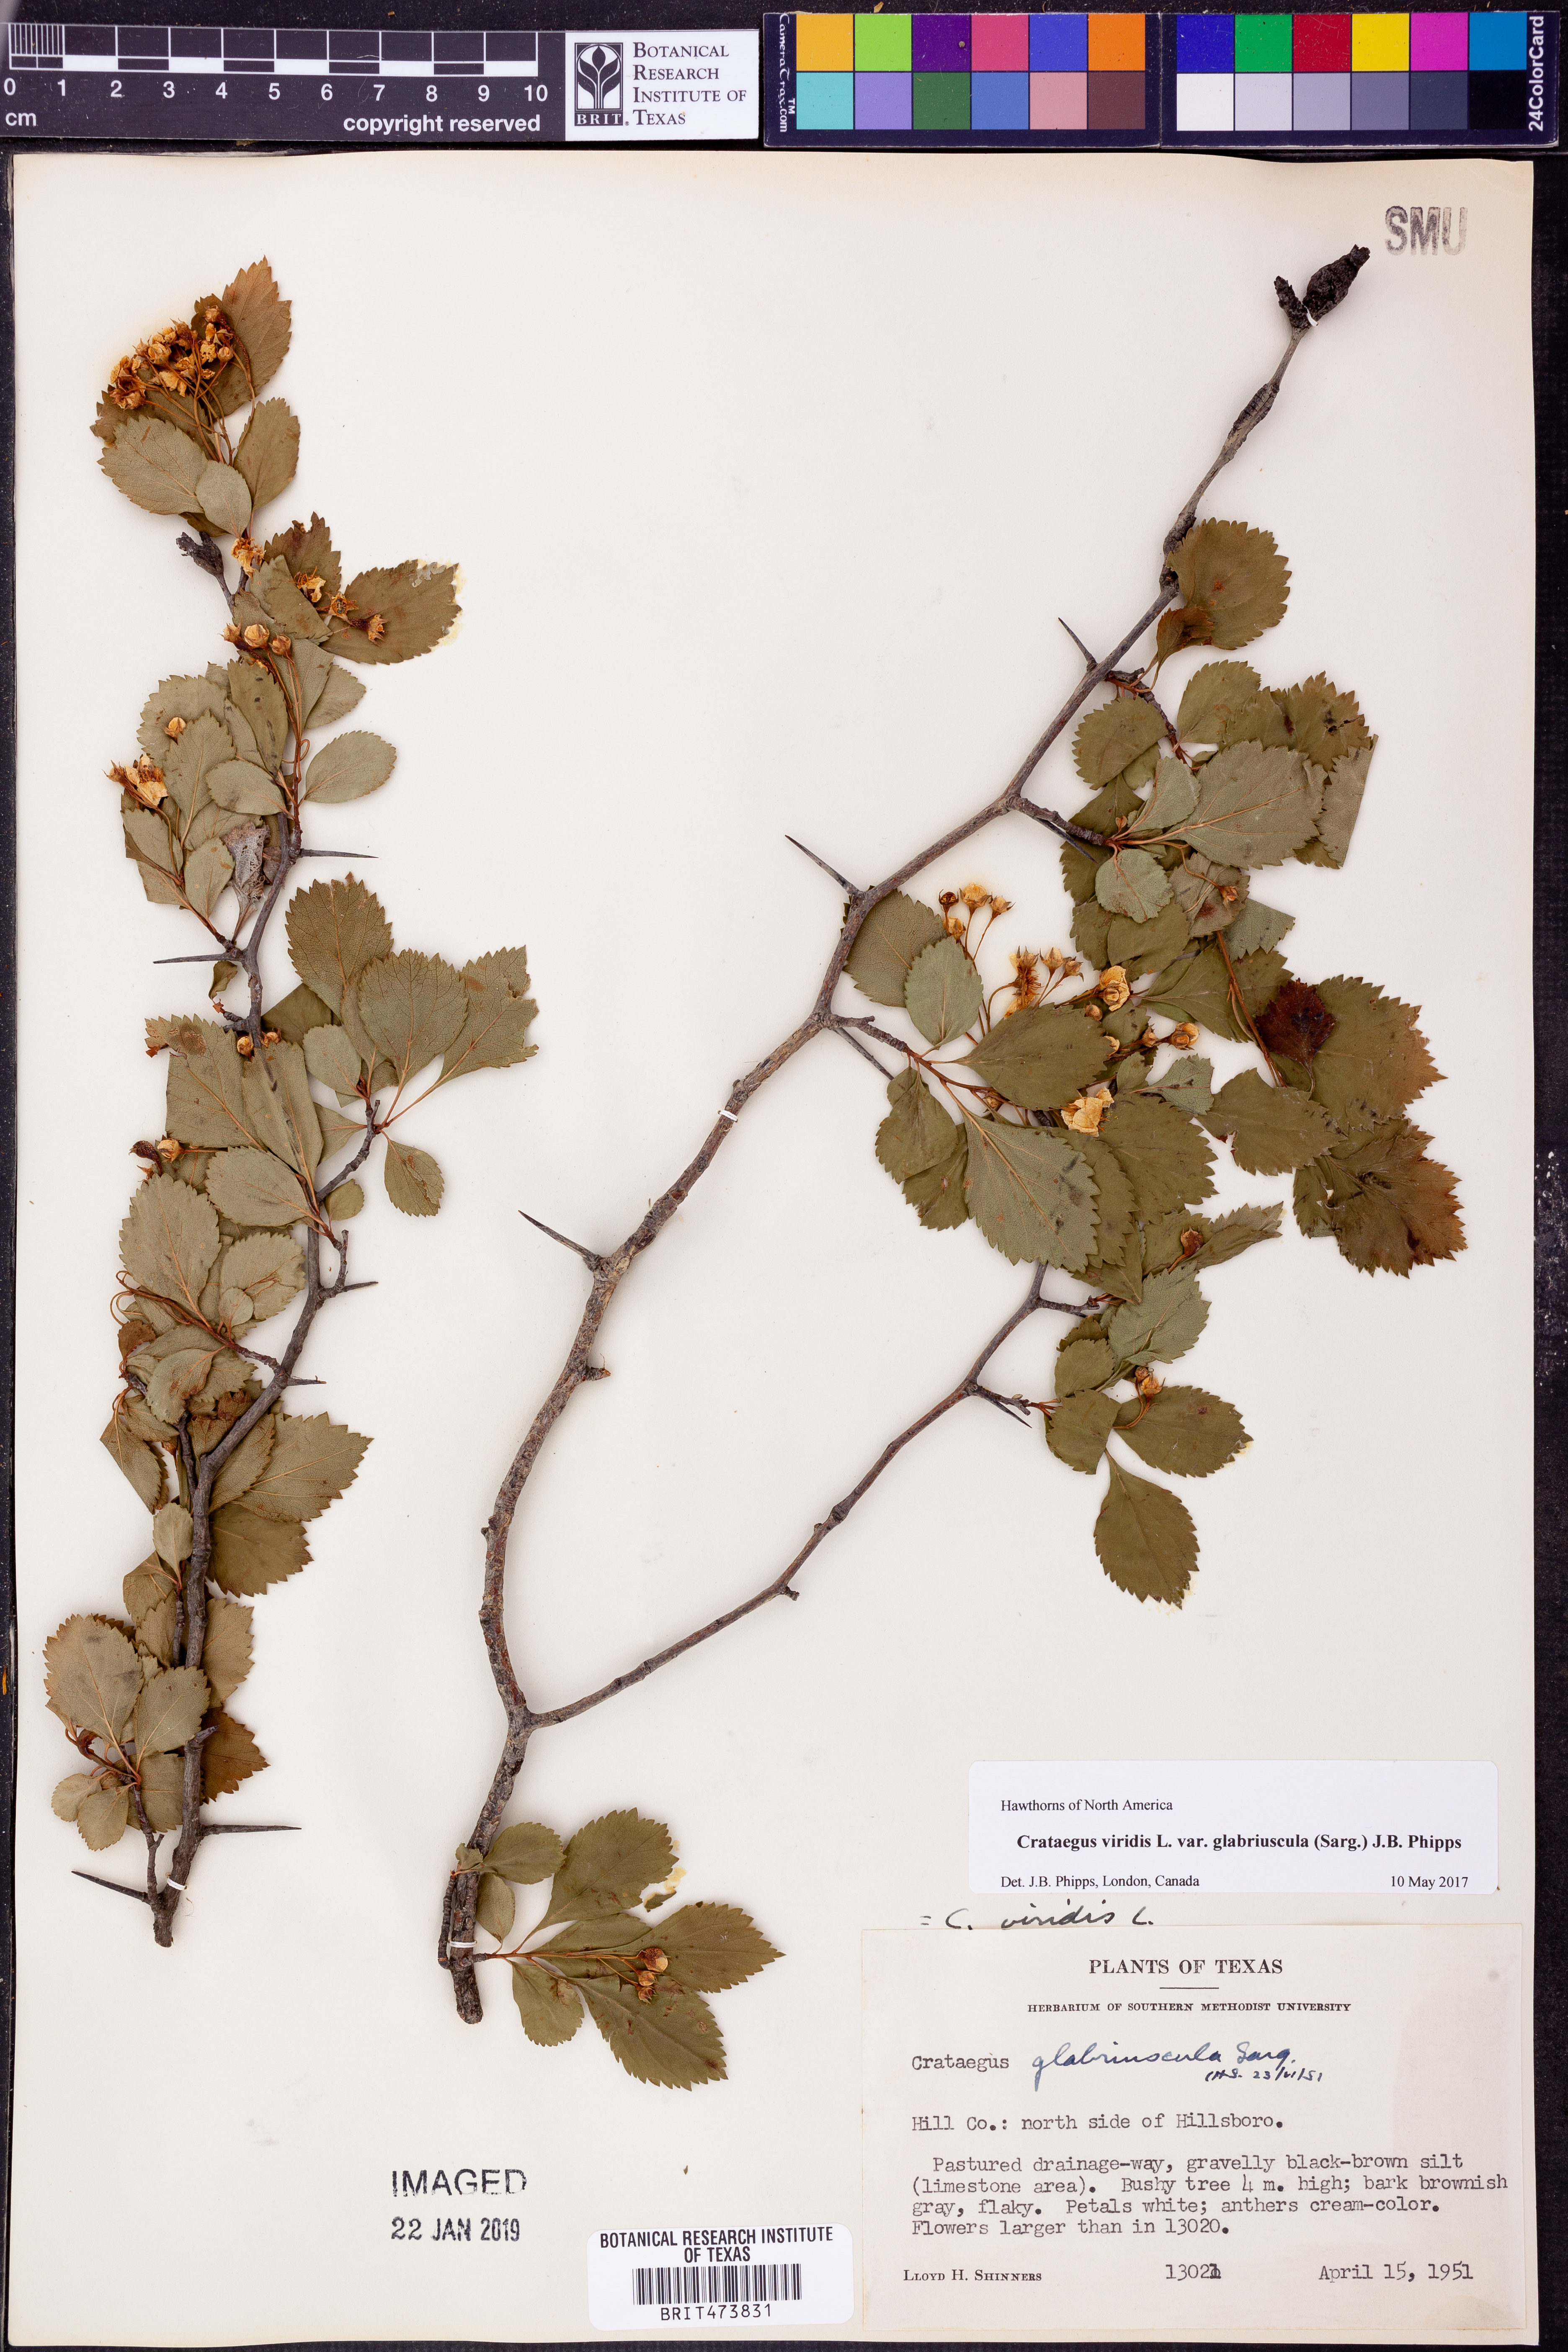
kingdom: Plantae
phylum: Tracheophyta
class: Magnoliopsida
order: Rosales
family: Rosaceae
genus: Crataegus
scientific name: Crataegus viridis
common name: Southernthorn
